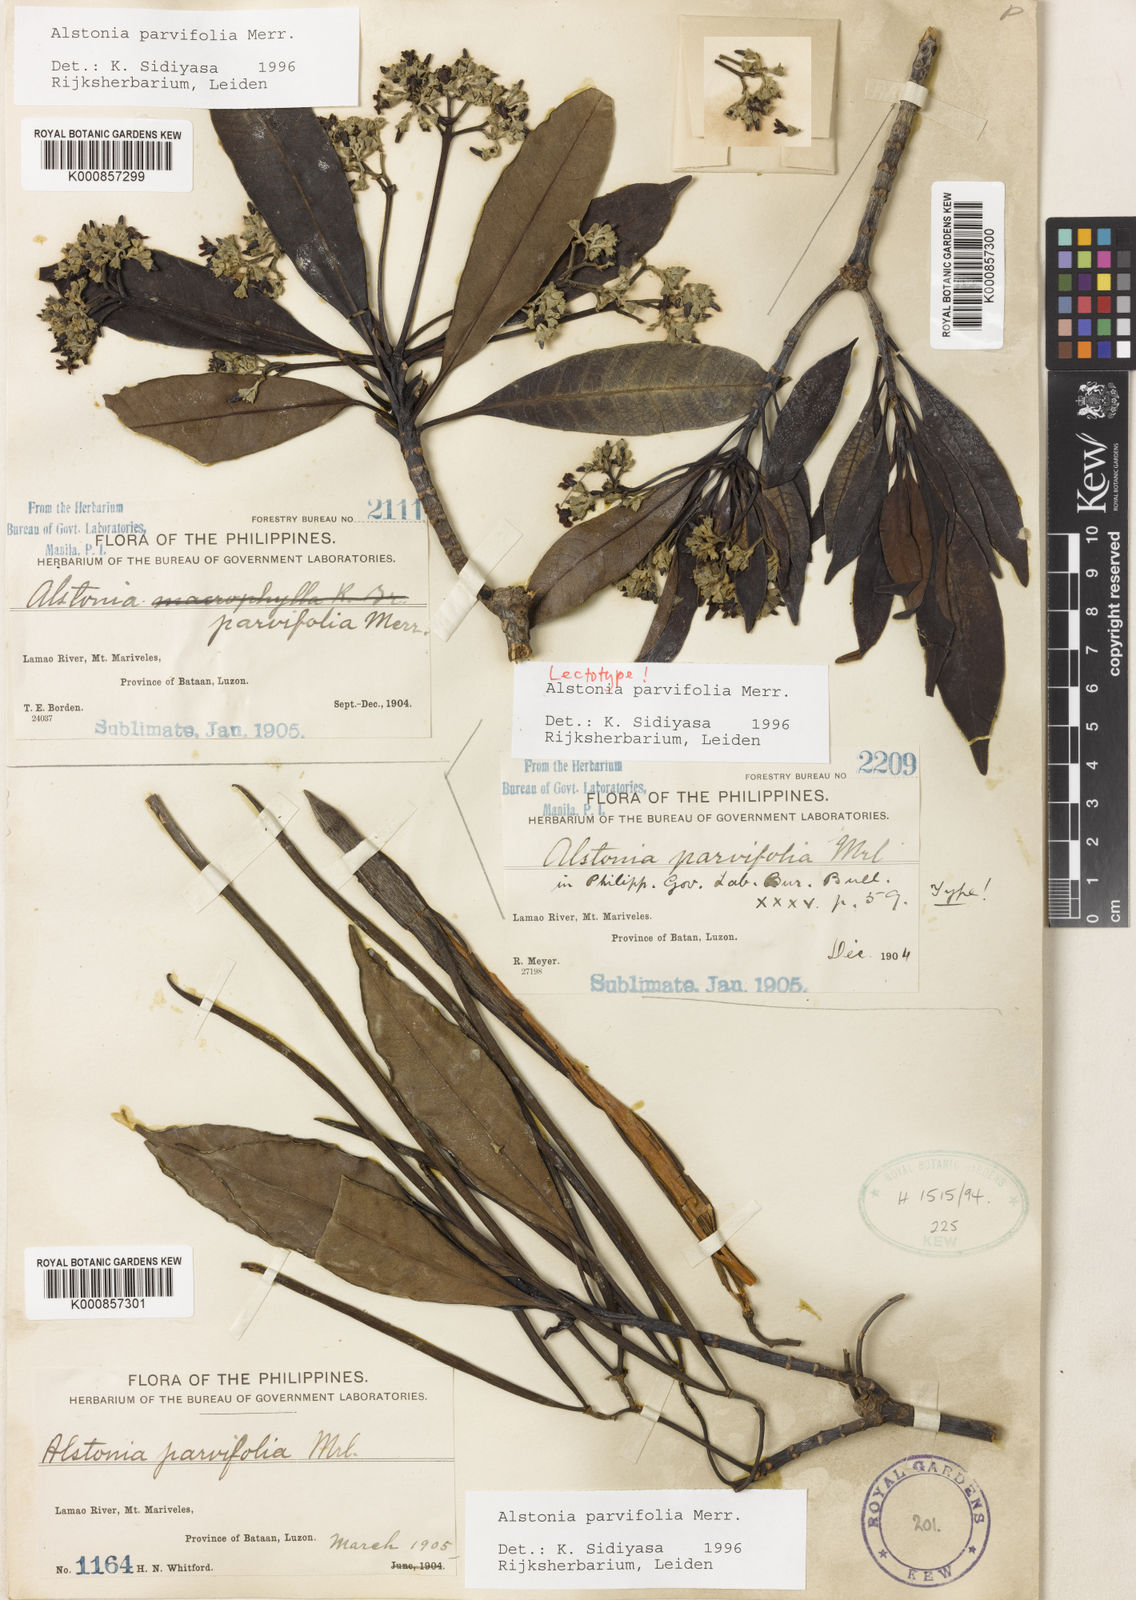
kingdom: Plantae
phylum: Tracheophyta
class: Magnoliopsida
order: Gentianales
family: Apocynaceae
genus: Alstonia
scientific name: Alstonia parvifolia
